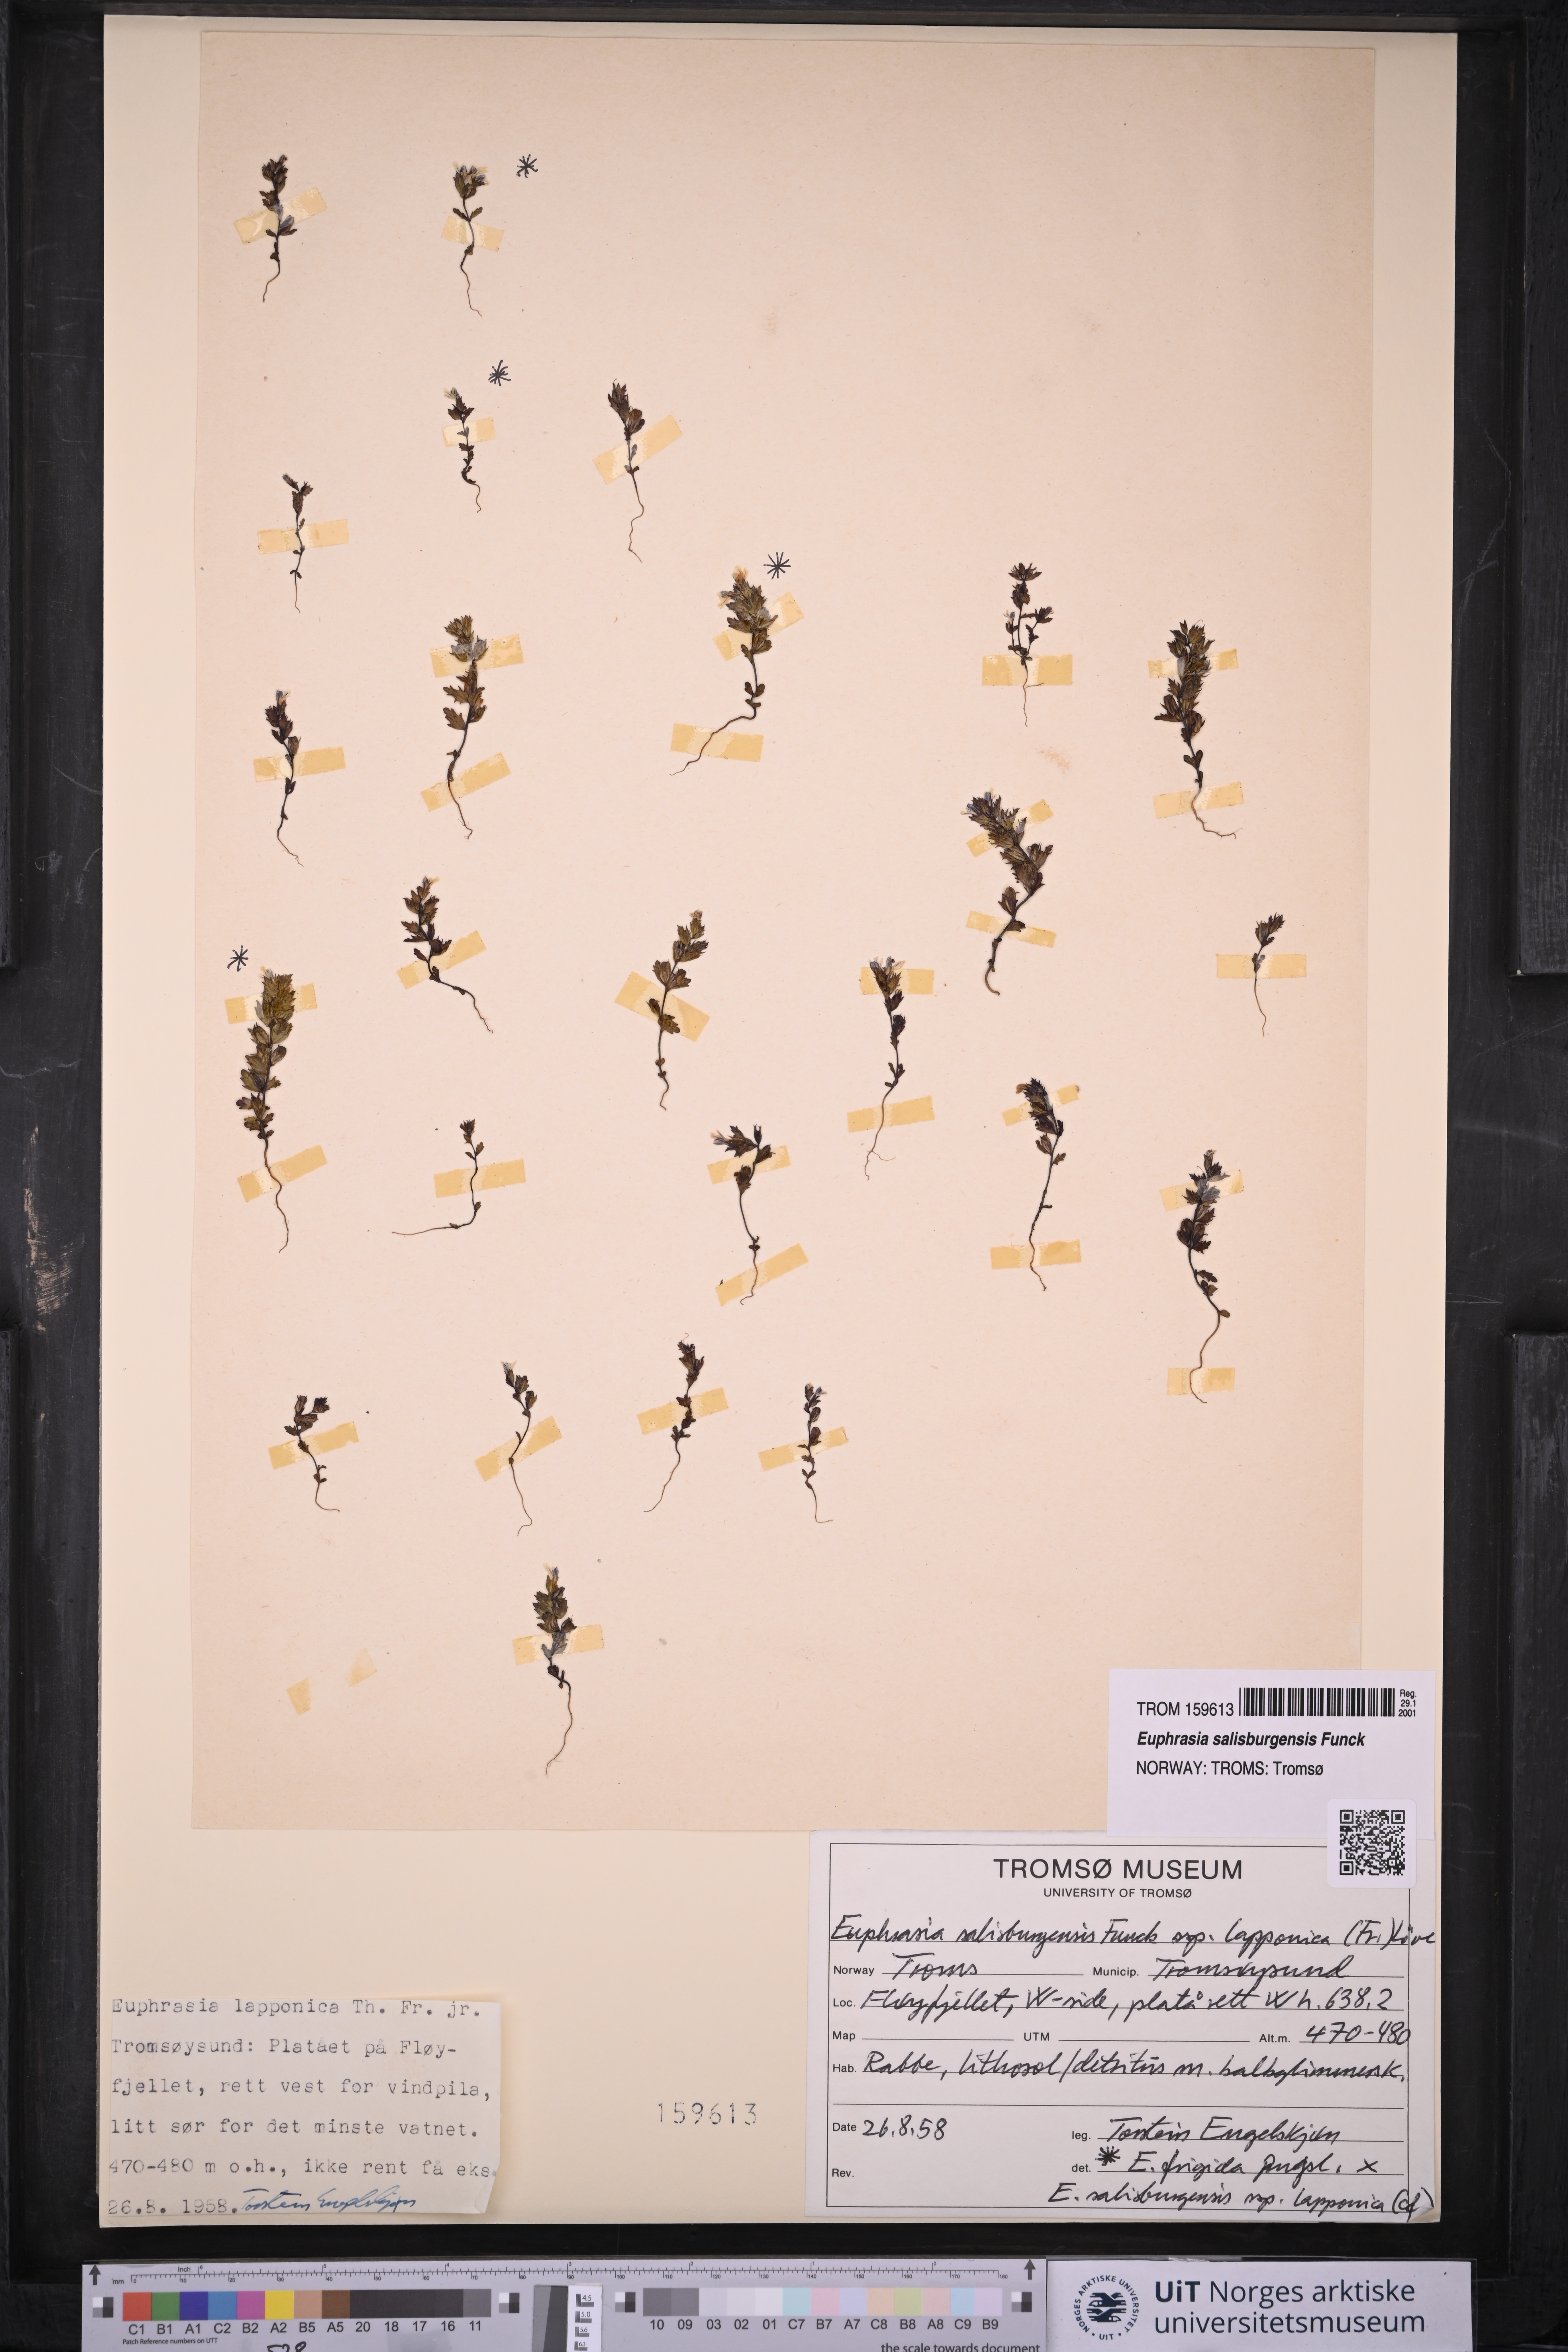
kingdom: Plantae
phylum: Tracheophyta
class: Magnoliopsida
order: Lamiales
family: Orobanchaceae
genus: Euphrasia
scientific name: Euphrasia salisburgensis
